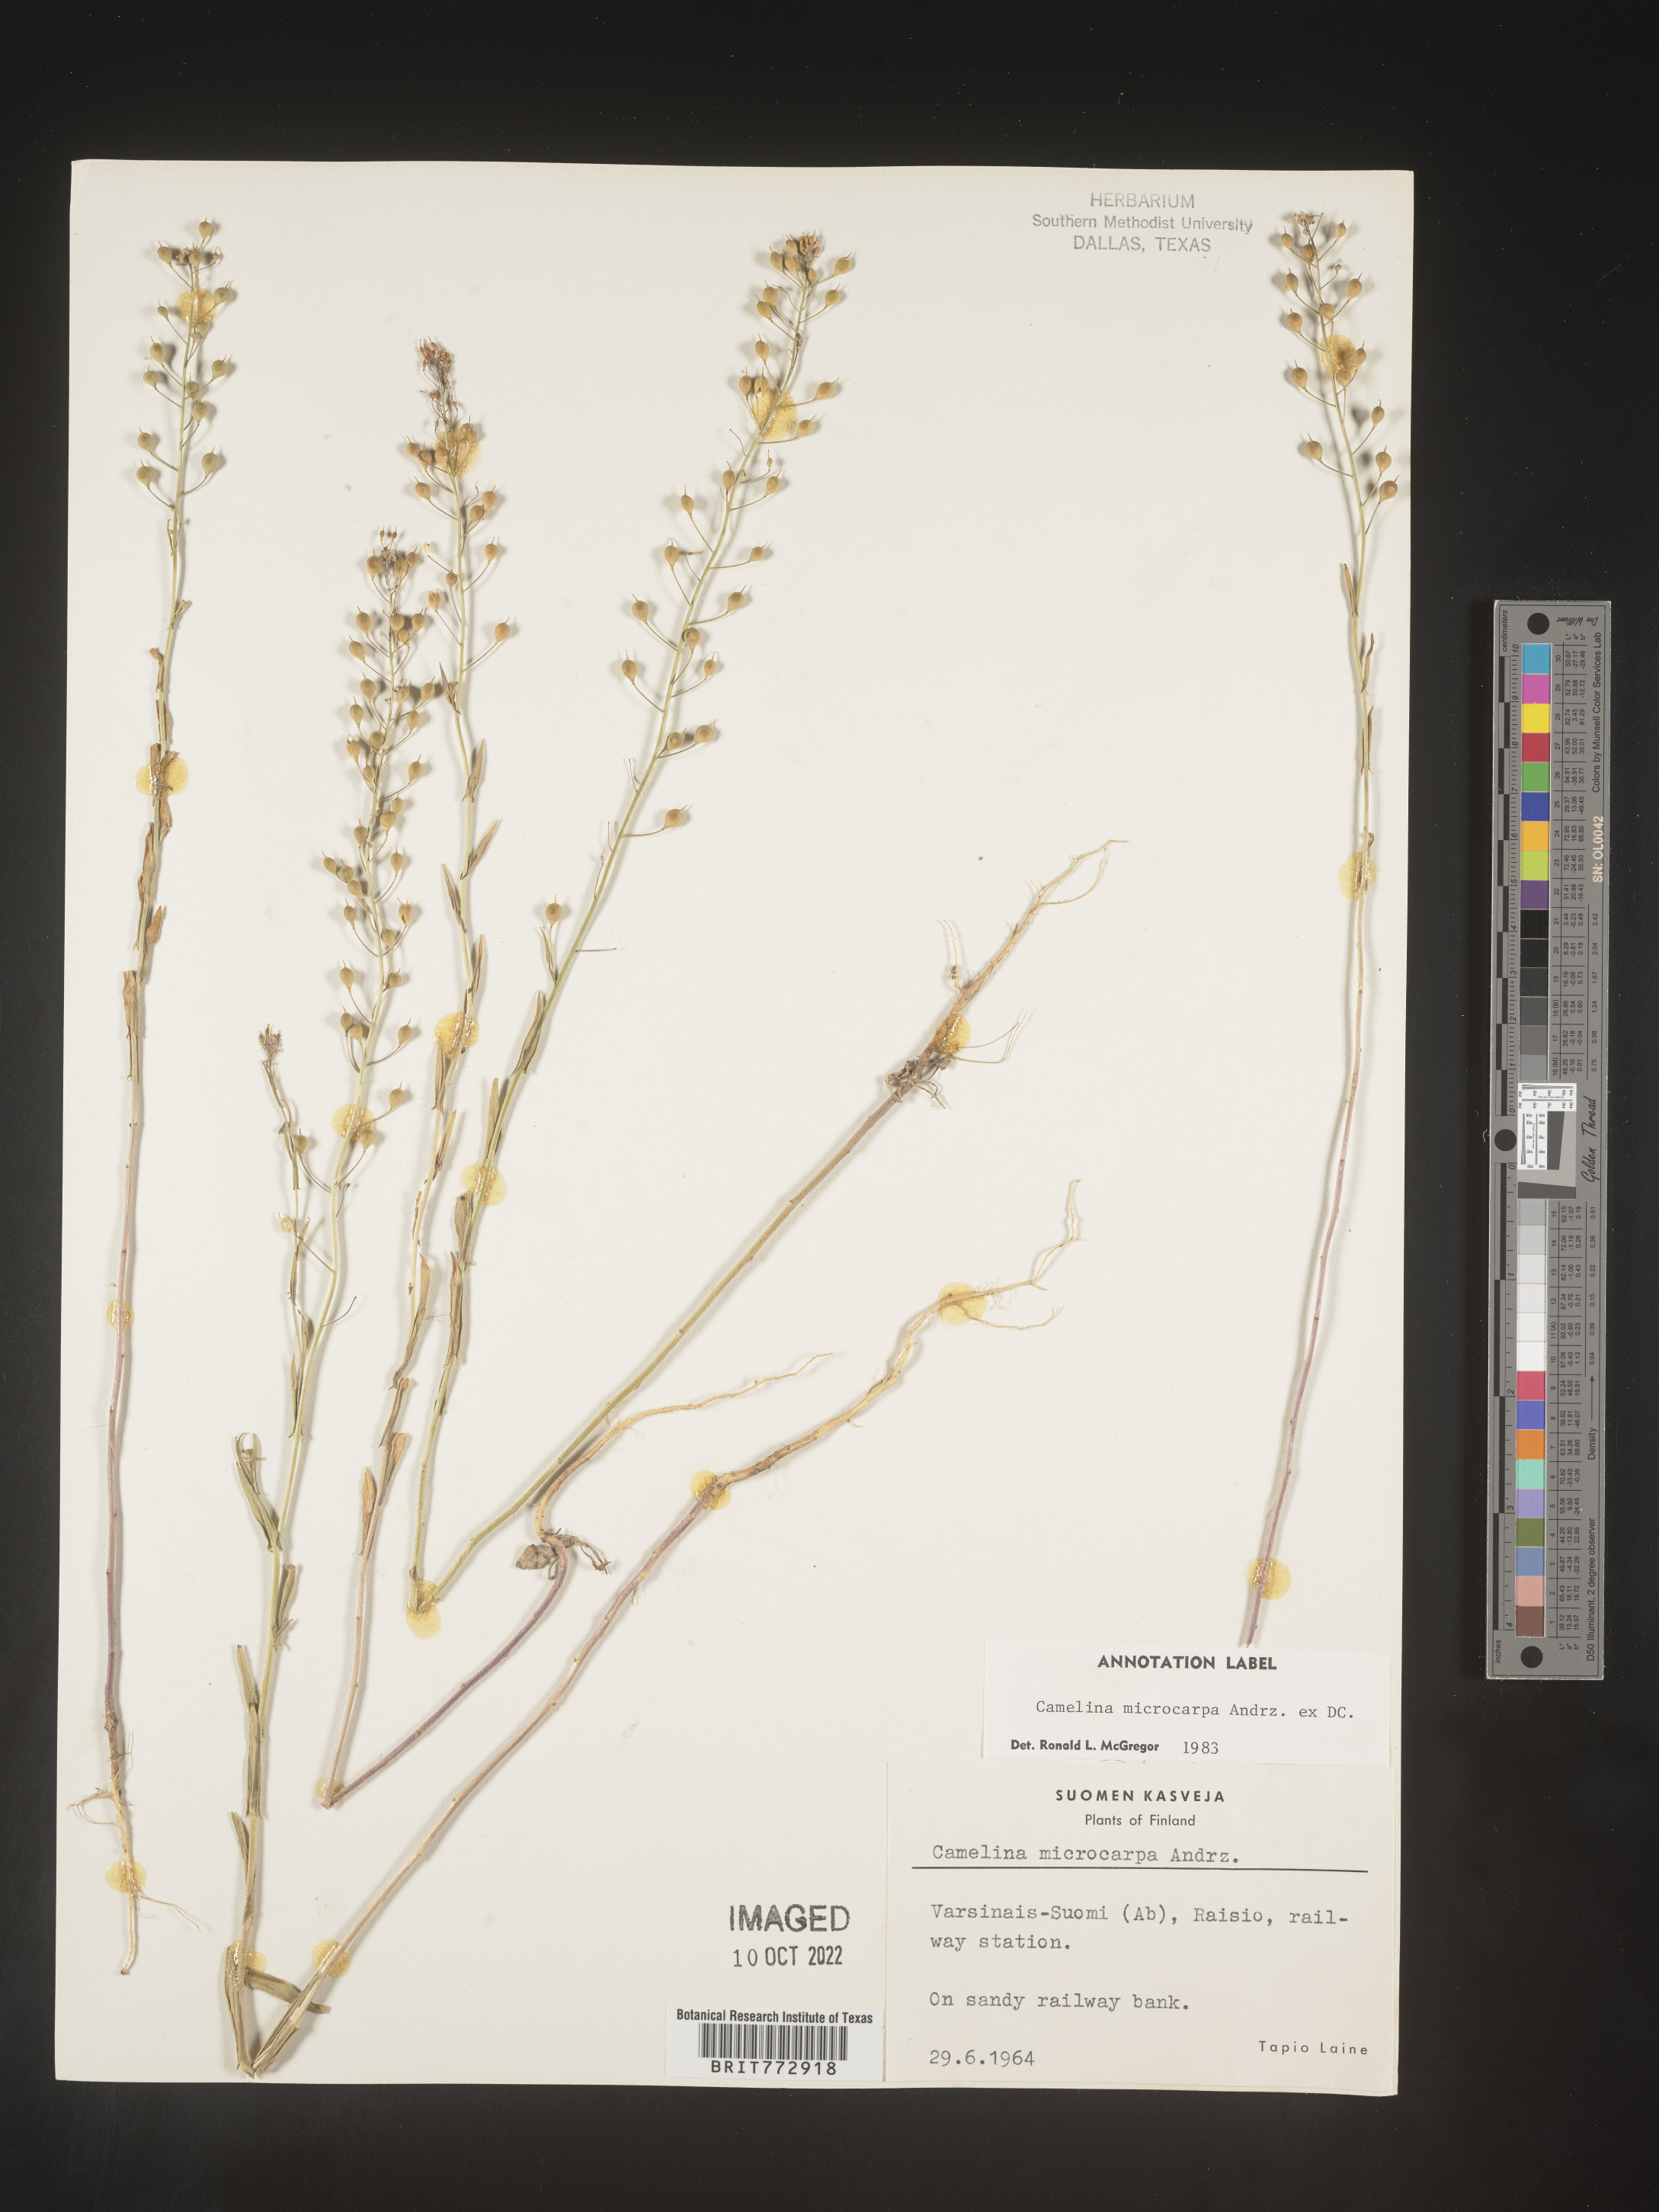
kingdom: Plantae
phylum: Tracheophyta
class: Magnoliopsida
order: Brassicales
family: Brassicaceae
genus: Camelina
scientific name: Camelina
